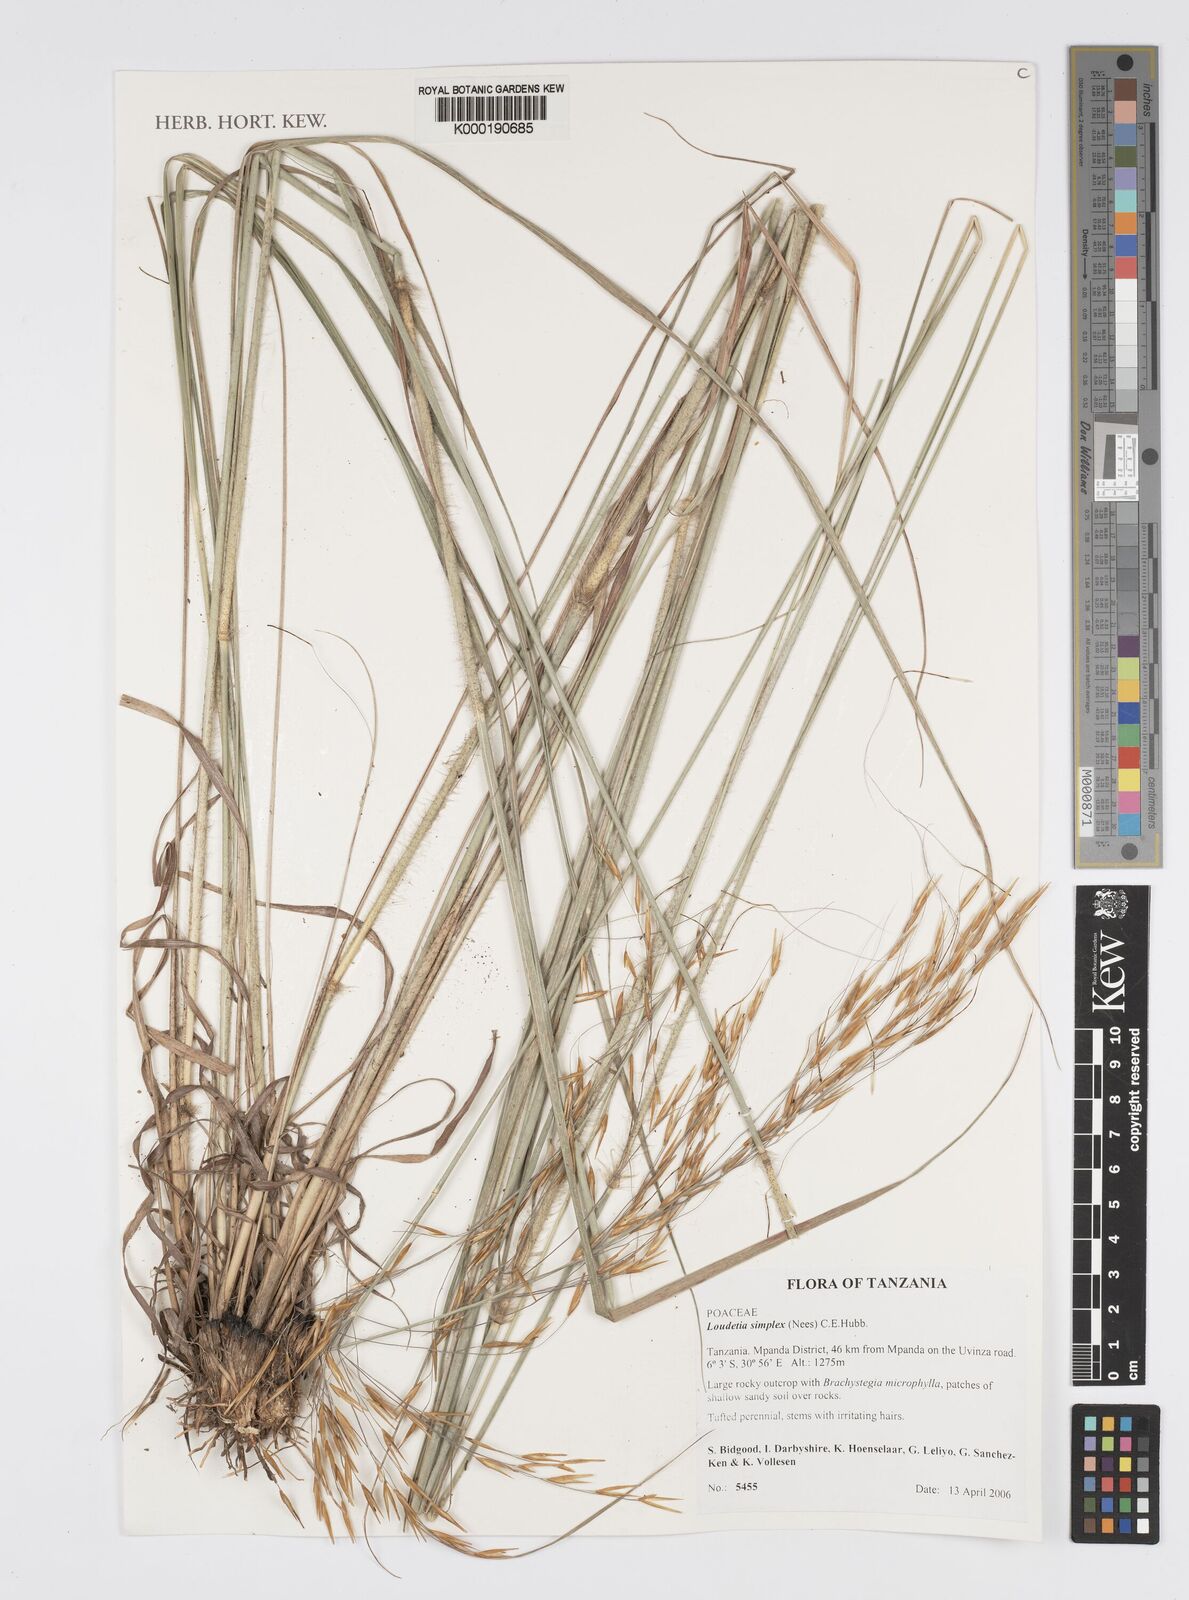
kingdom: Plantae
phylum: Tracheophyta
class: Liliopsida
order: Poales
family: Poaceae
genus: Loudetia
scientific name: Loudetia simplex
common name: Common russet grass
